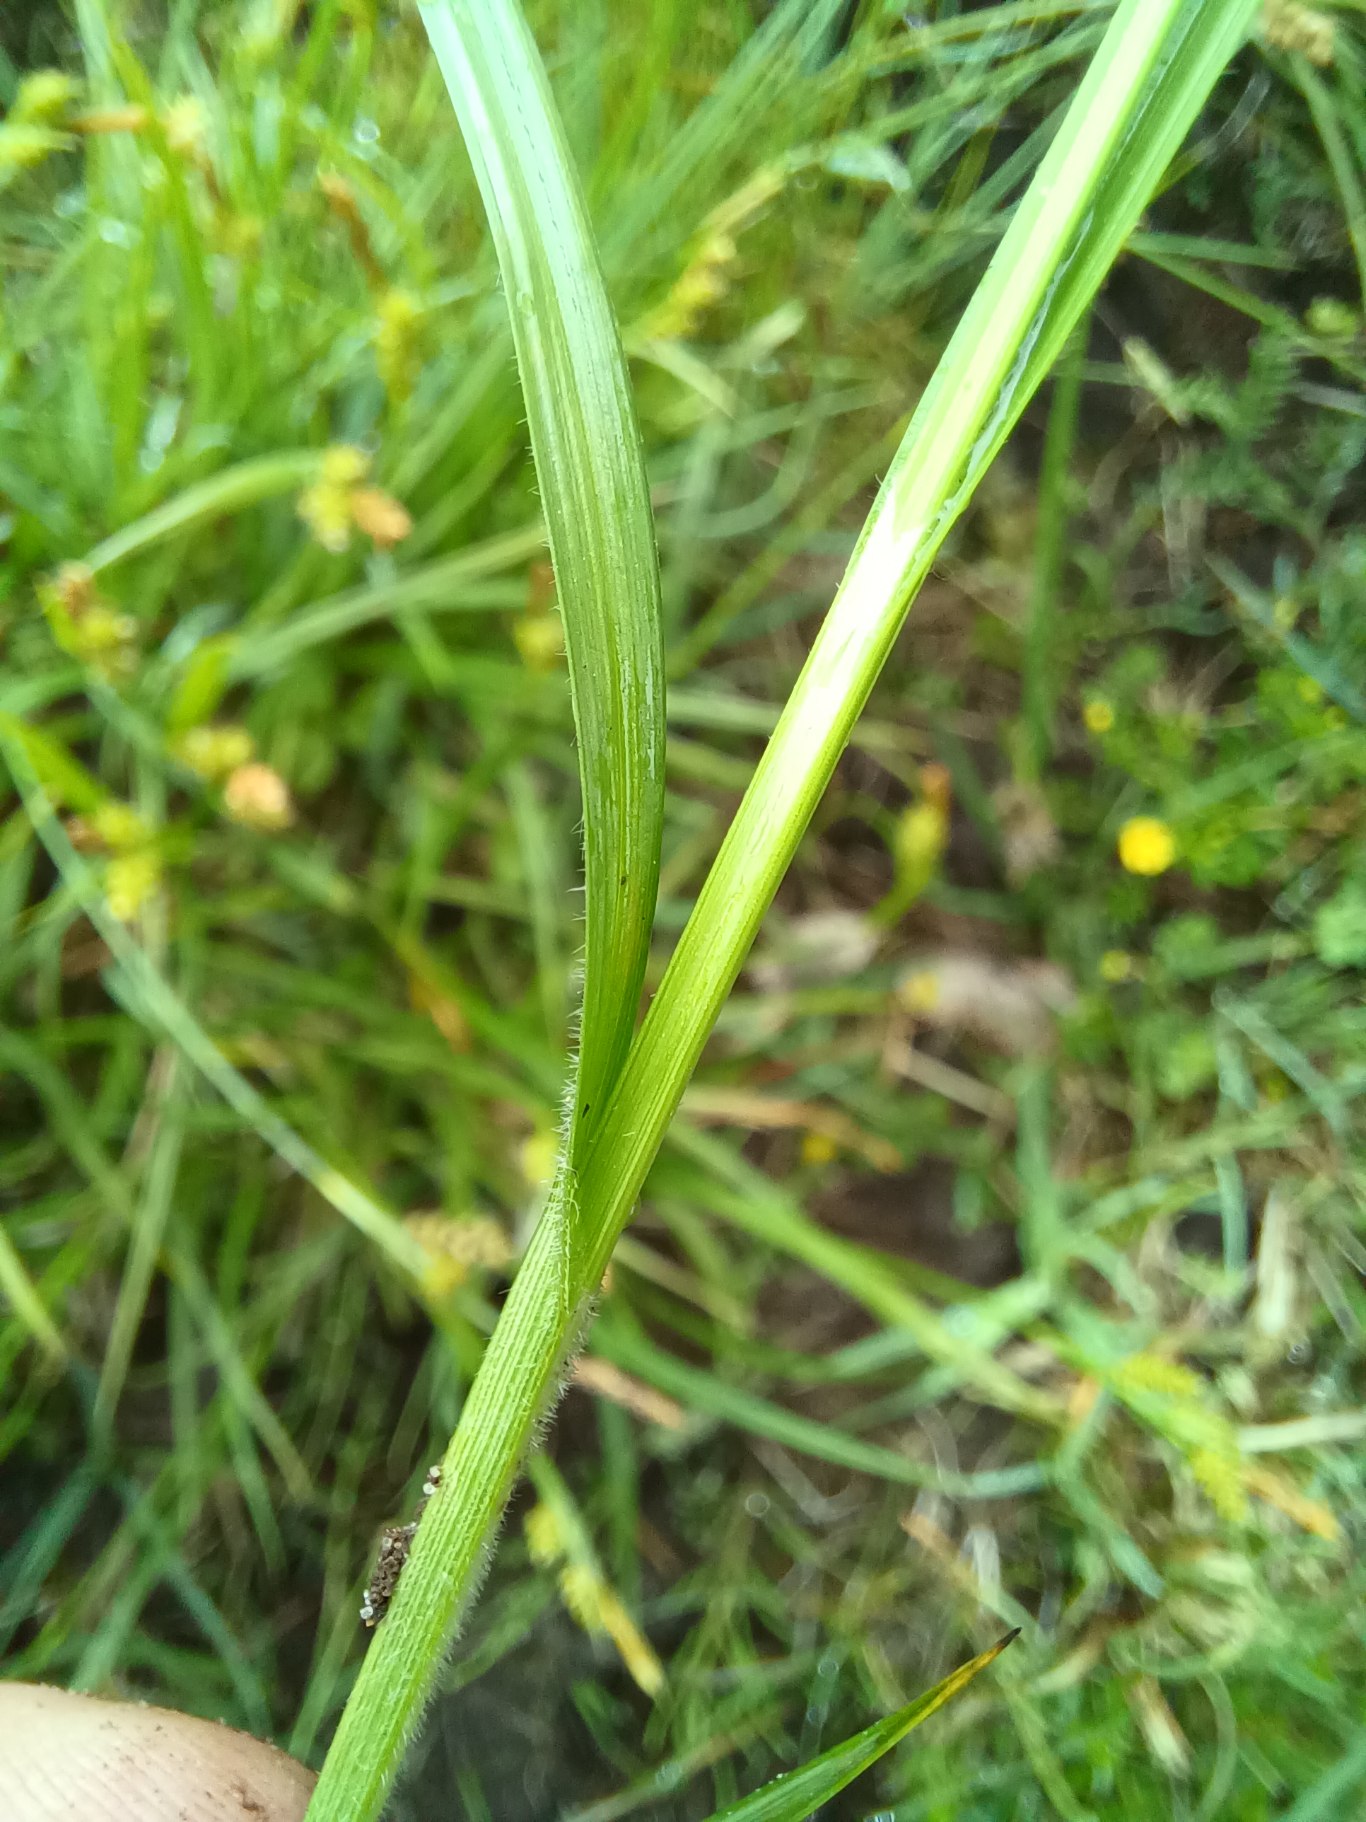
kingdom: Plantae
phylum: Tracheophyta
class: Liliopsida
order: Poales
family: Cyperaceae
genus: Carex
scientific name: Carex pallescens
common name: Bleg star
